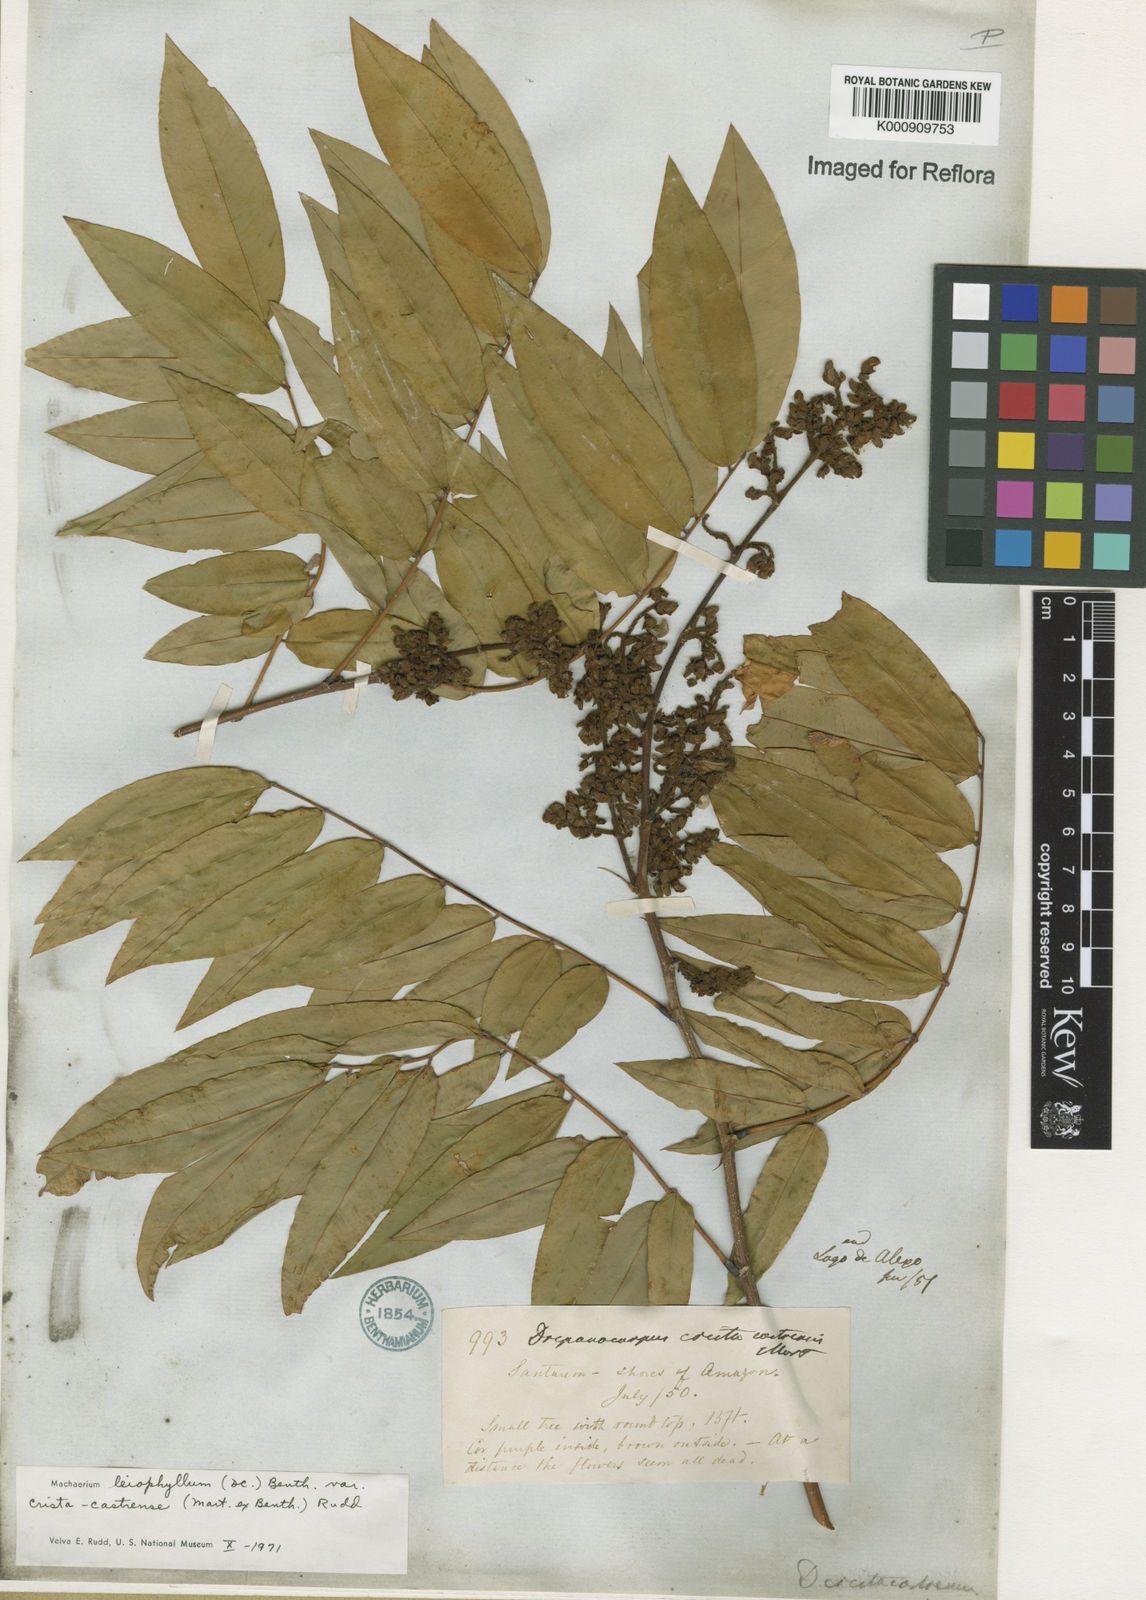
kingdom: Plantae
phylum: Tracheophyta
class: Magnoliopsida
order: Fabales
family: Fabaceae
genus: Machaerium
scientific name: Machaerium leiophyllum
